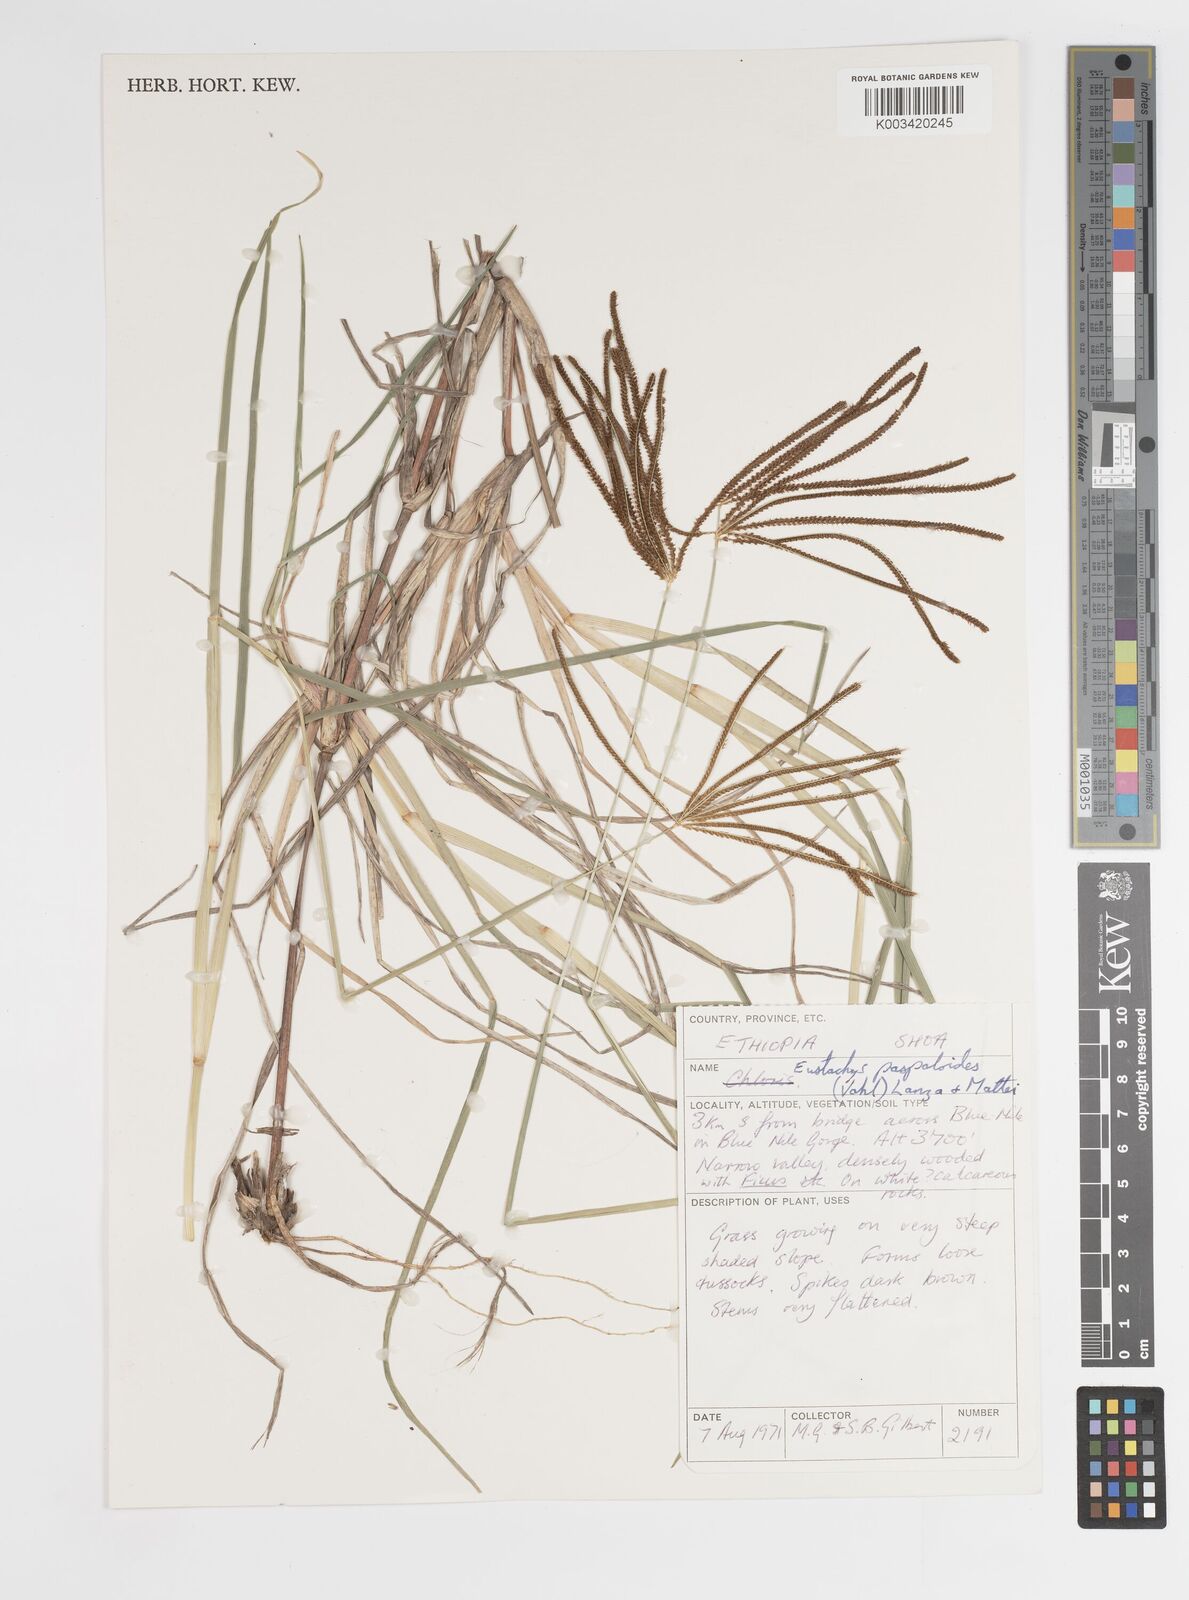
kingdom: Plantae
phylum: Tracheophyta
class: Liliopsida
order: Poales
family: Poaceae
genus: Eustachys
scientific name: Eustachys paspaloides
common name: Caribbean fingergrass
